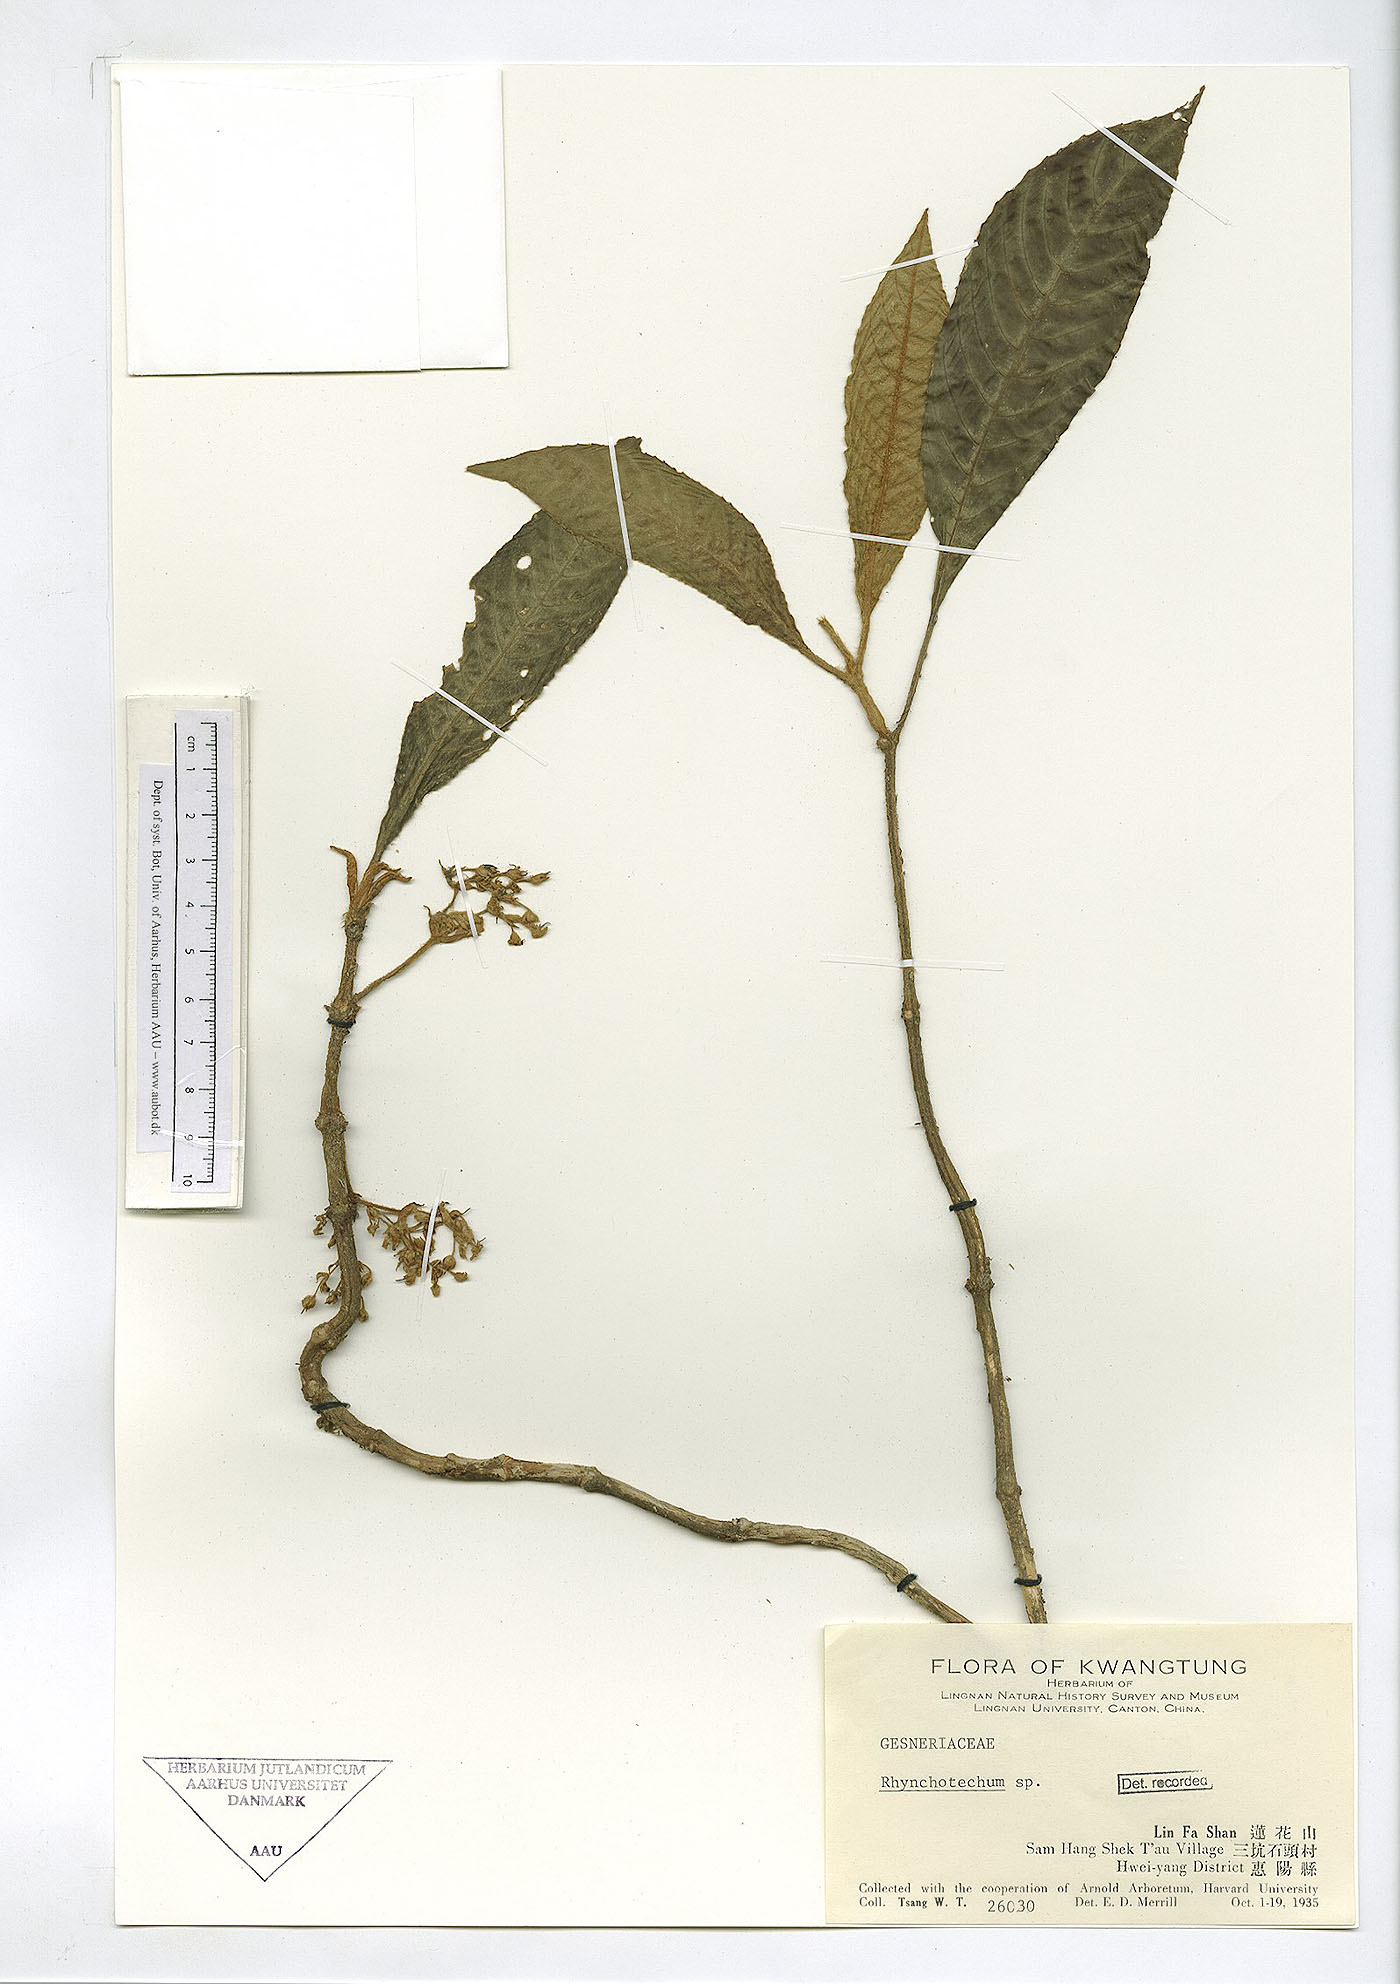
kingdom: Plantae
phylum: Tracheophyta
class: Magnoliopsida
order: Lamiales
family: Gesneriaceae
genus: Rhynchotechum
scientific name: Rhynchotechum obovatum
